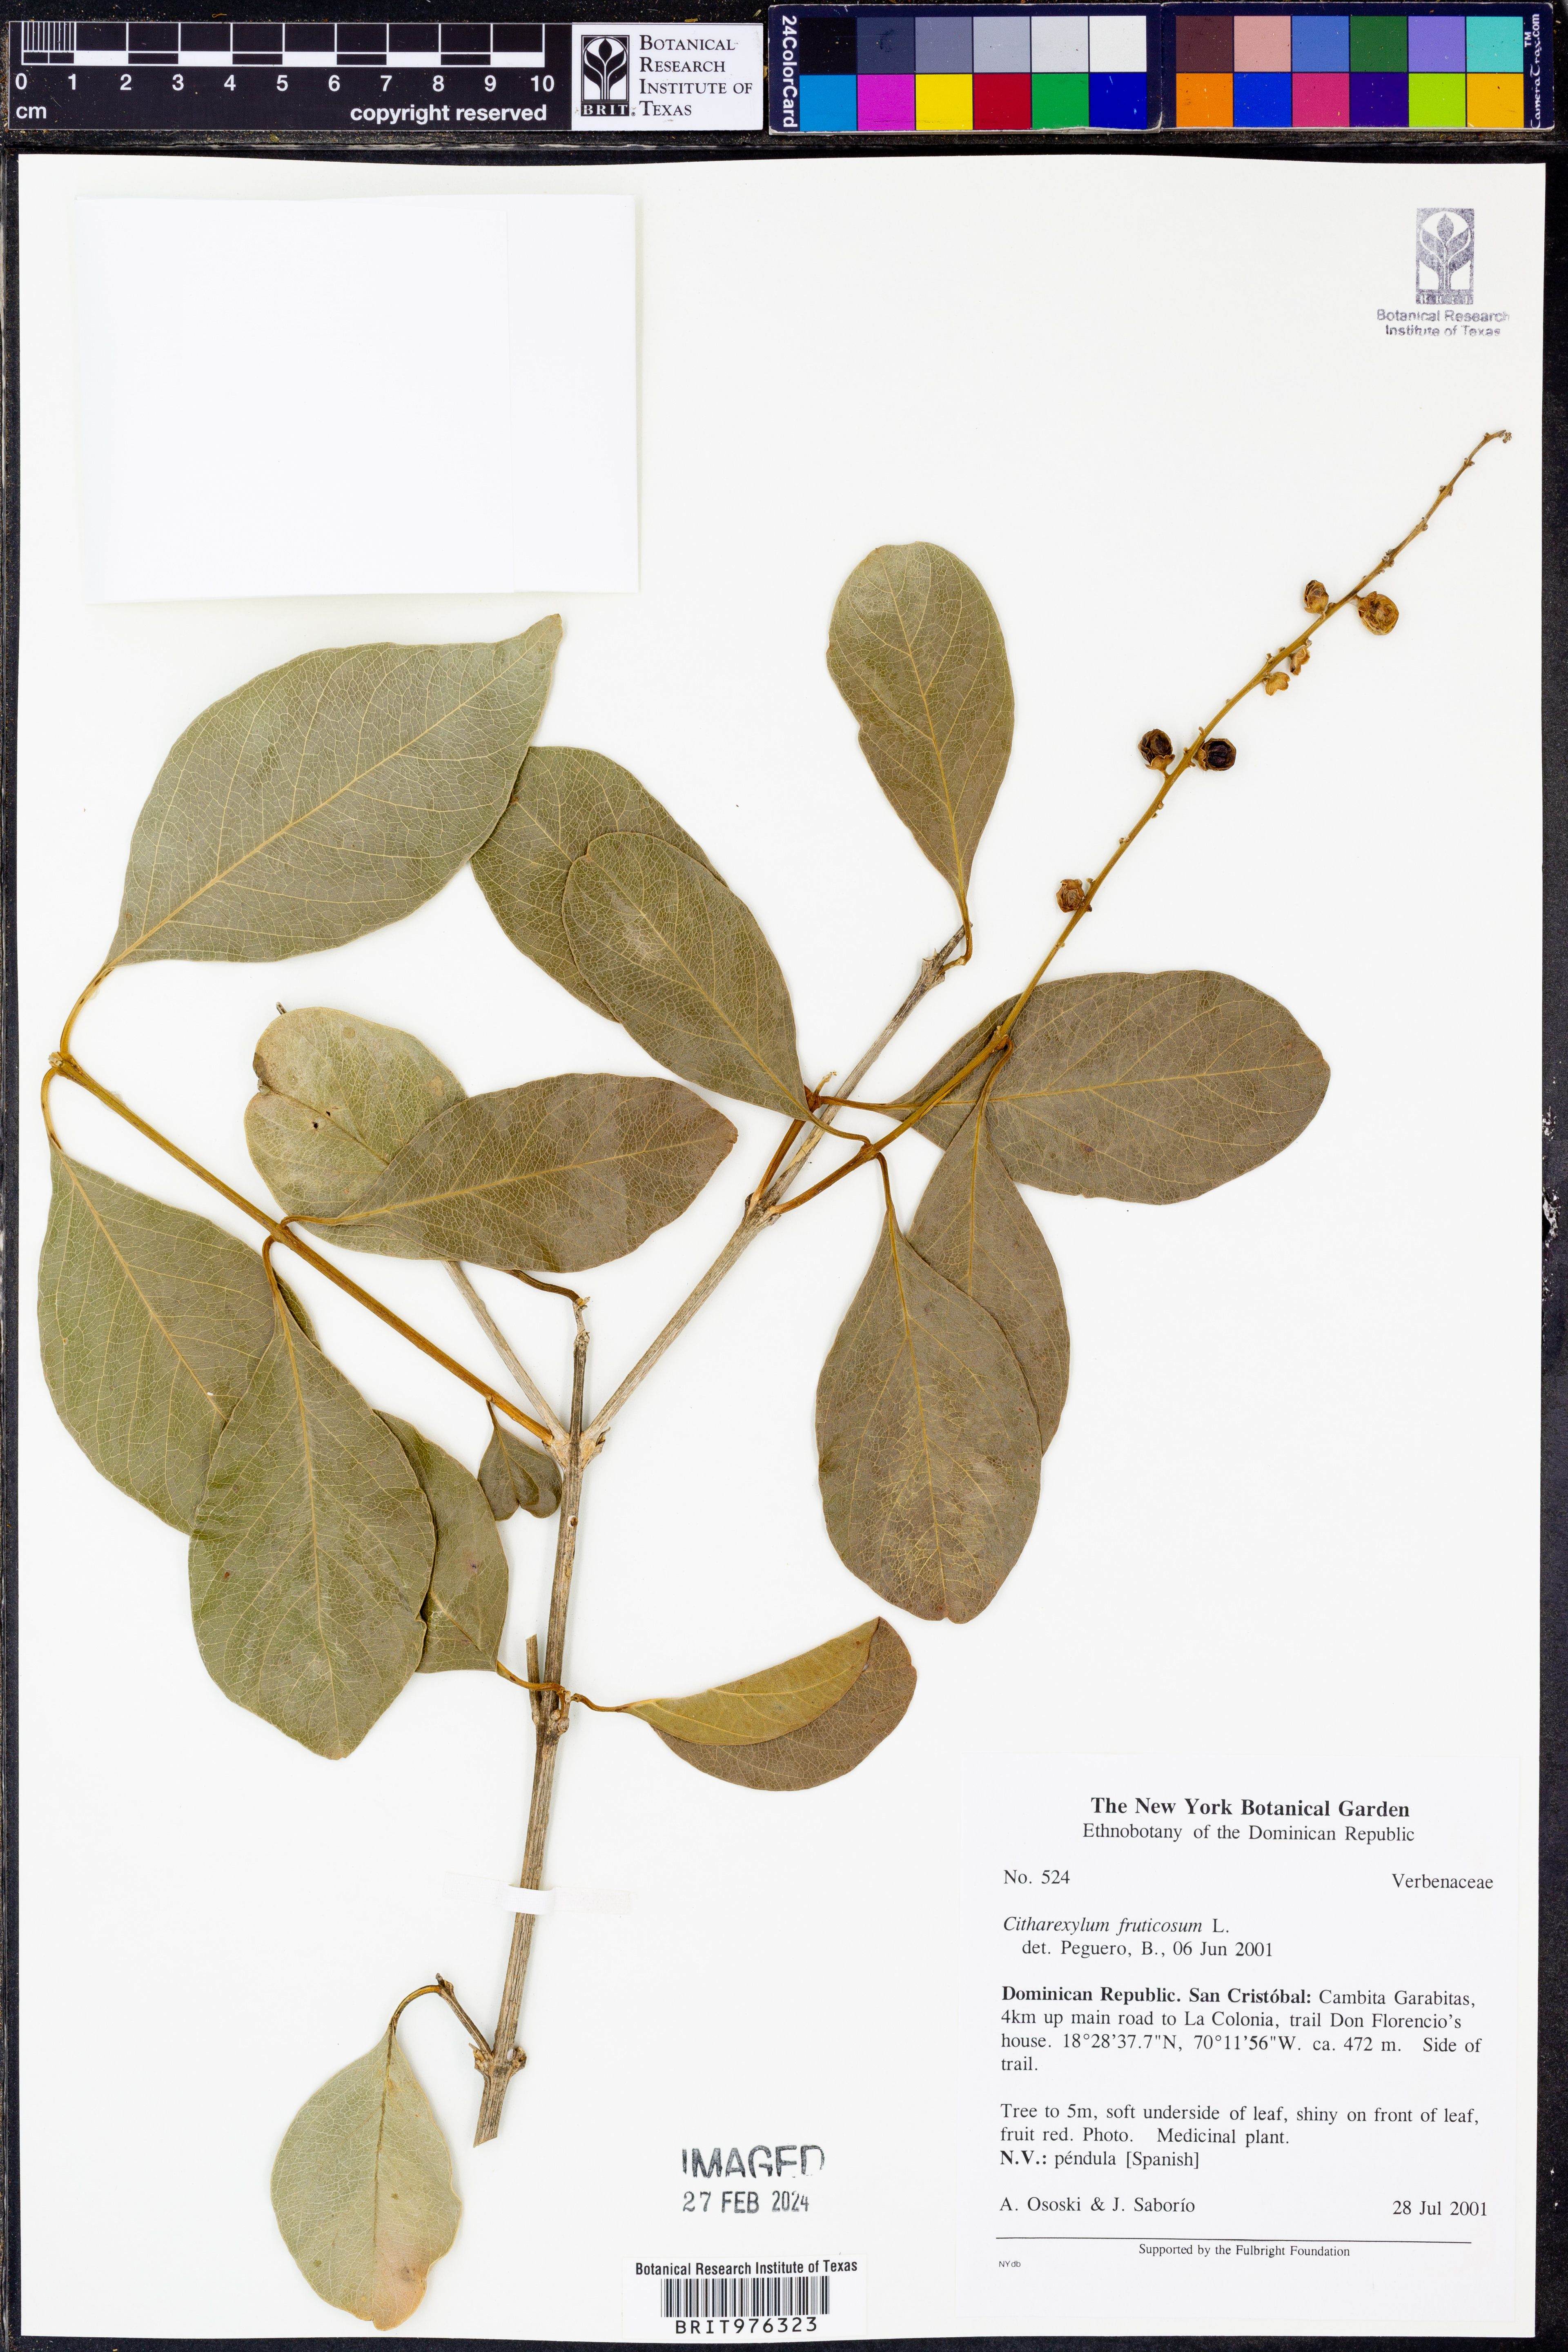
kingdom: Plantae
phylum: Tracheophyta
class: Magnoliopsida
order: Lamiales
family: Verbenaceae
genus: Citharexylum
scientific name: Citharexylum
